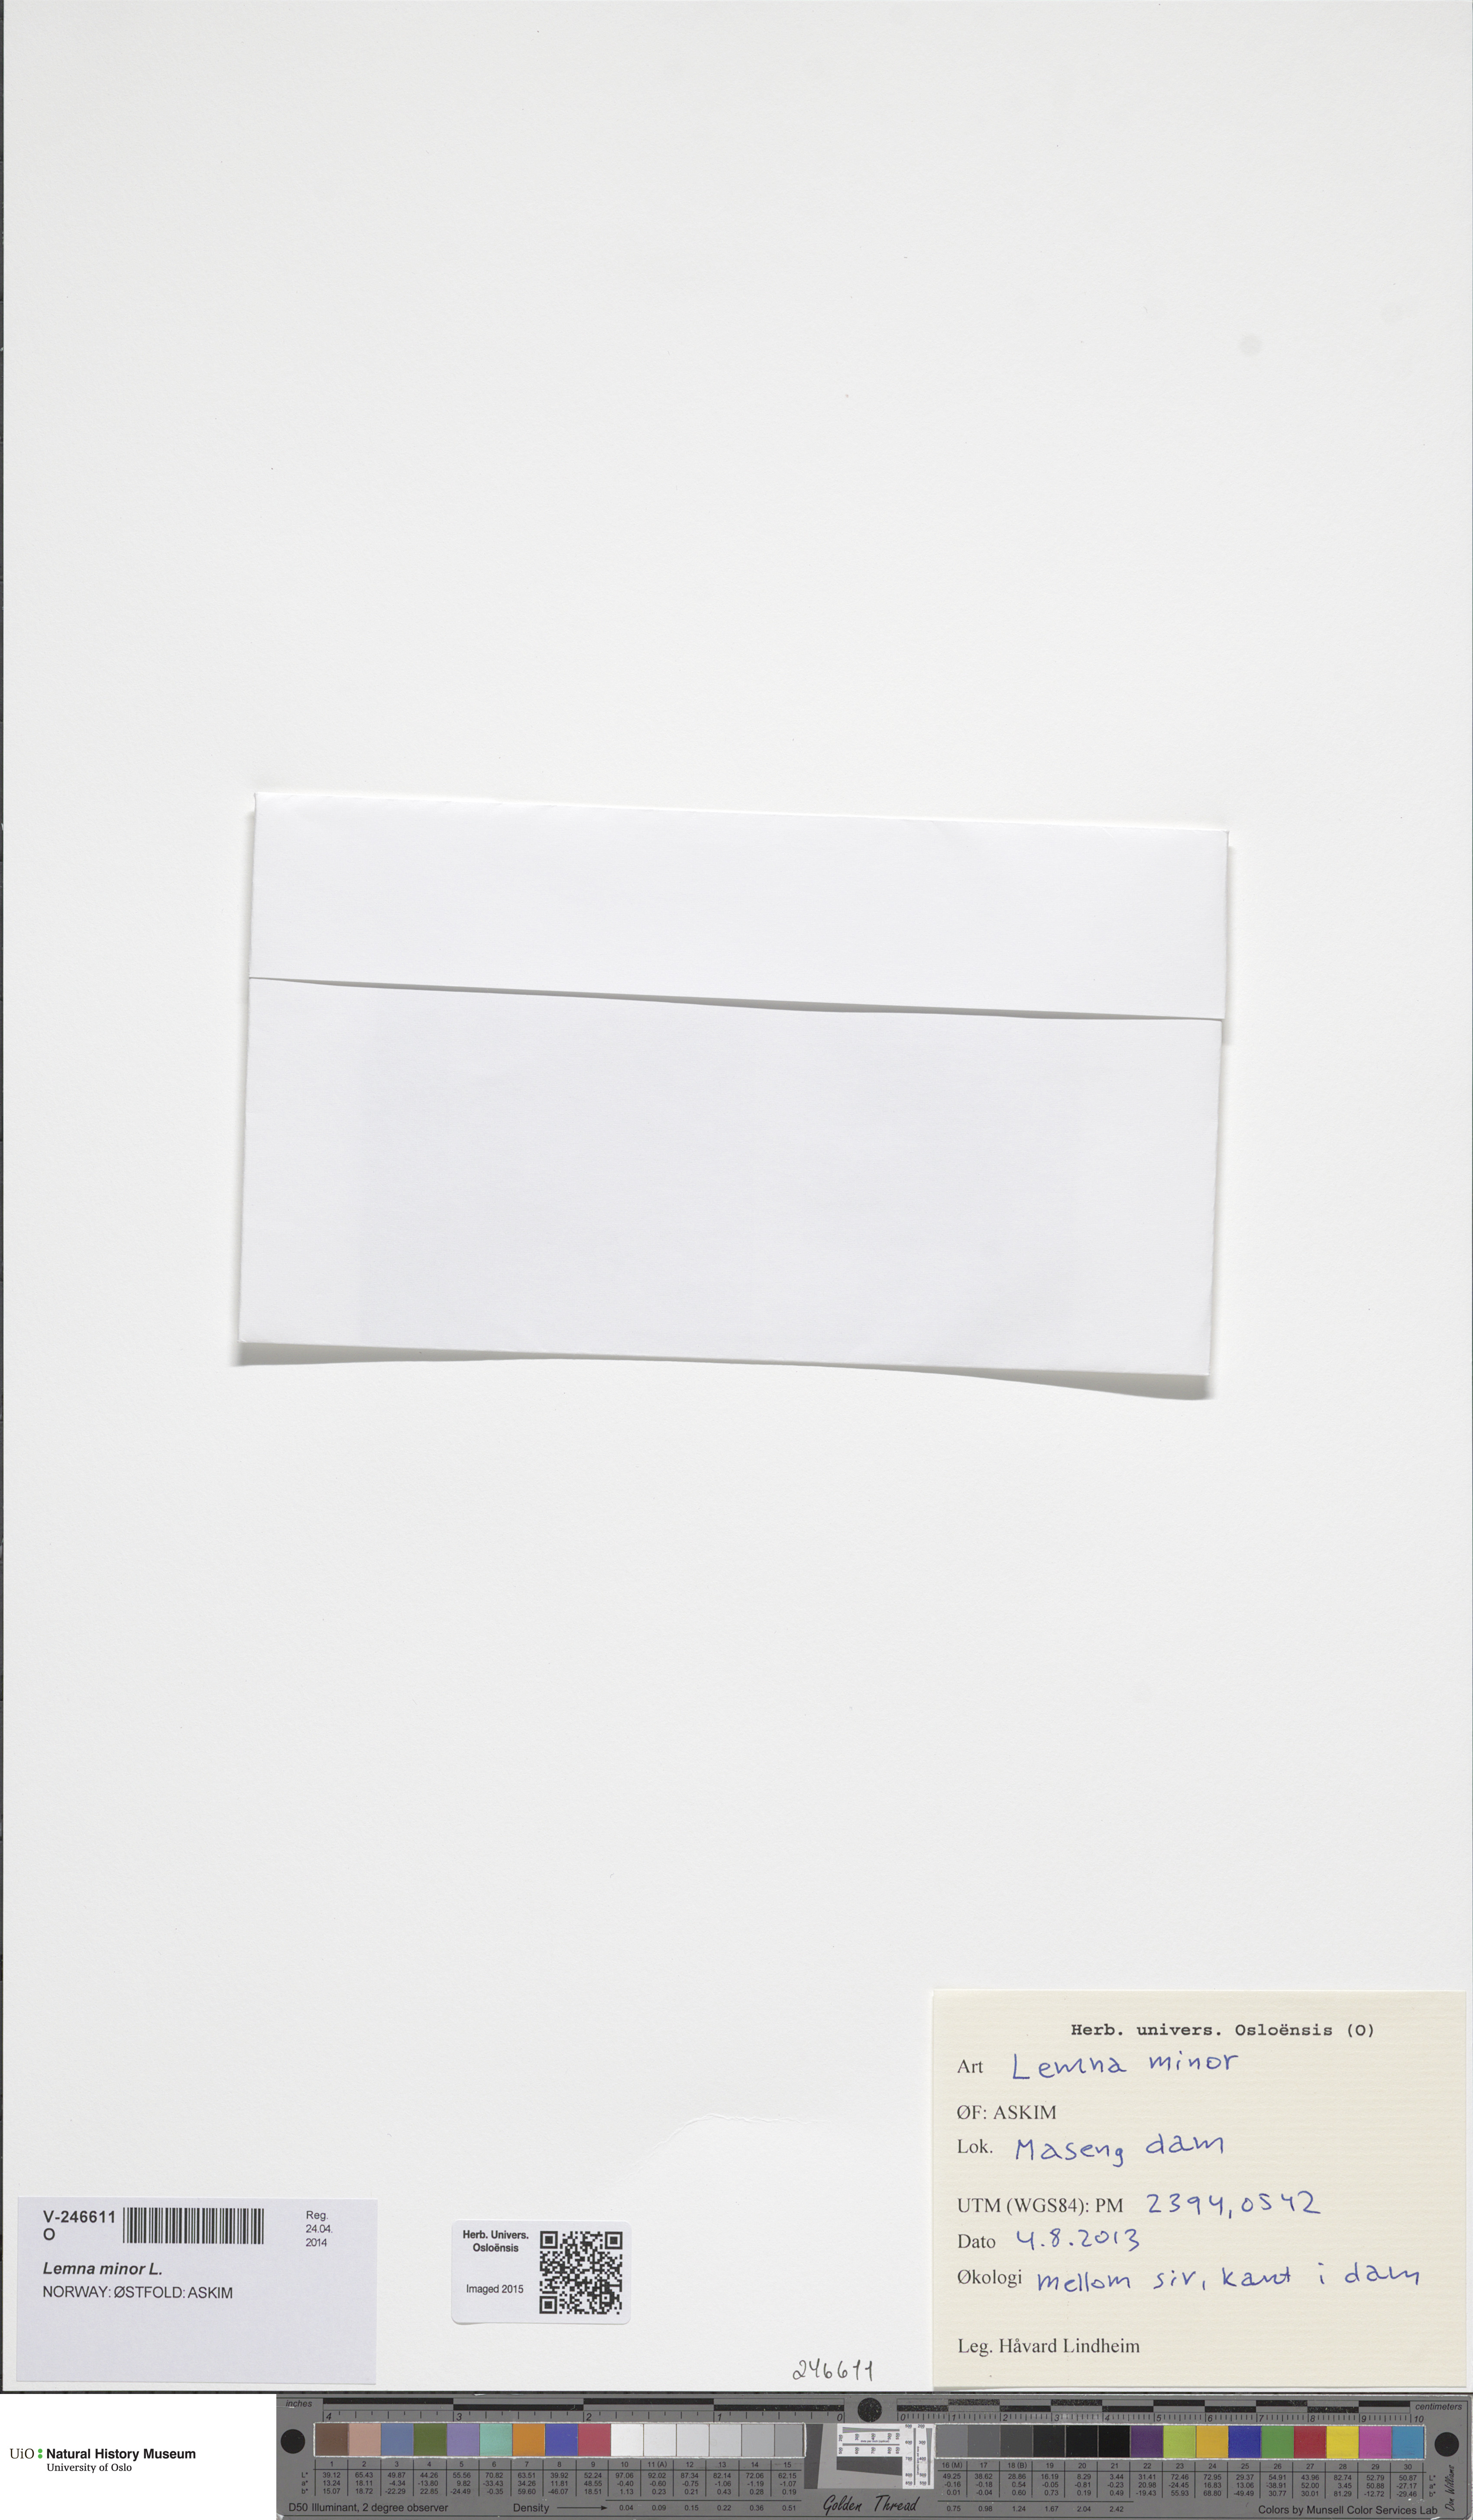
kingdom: Plantae
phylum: Tracheophyta
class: Liliopsida
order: Alismatales
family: Araceae
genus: Lemna
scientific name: Lemna minor
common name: Common duckweed
